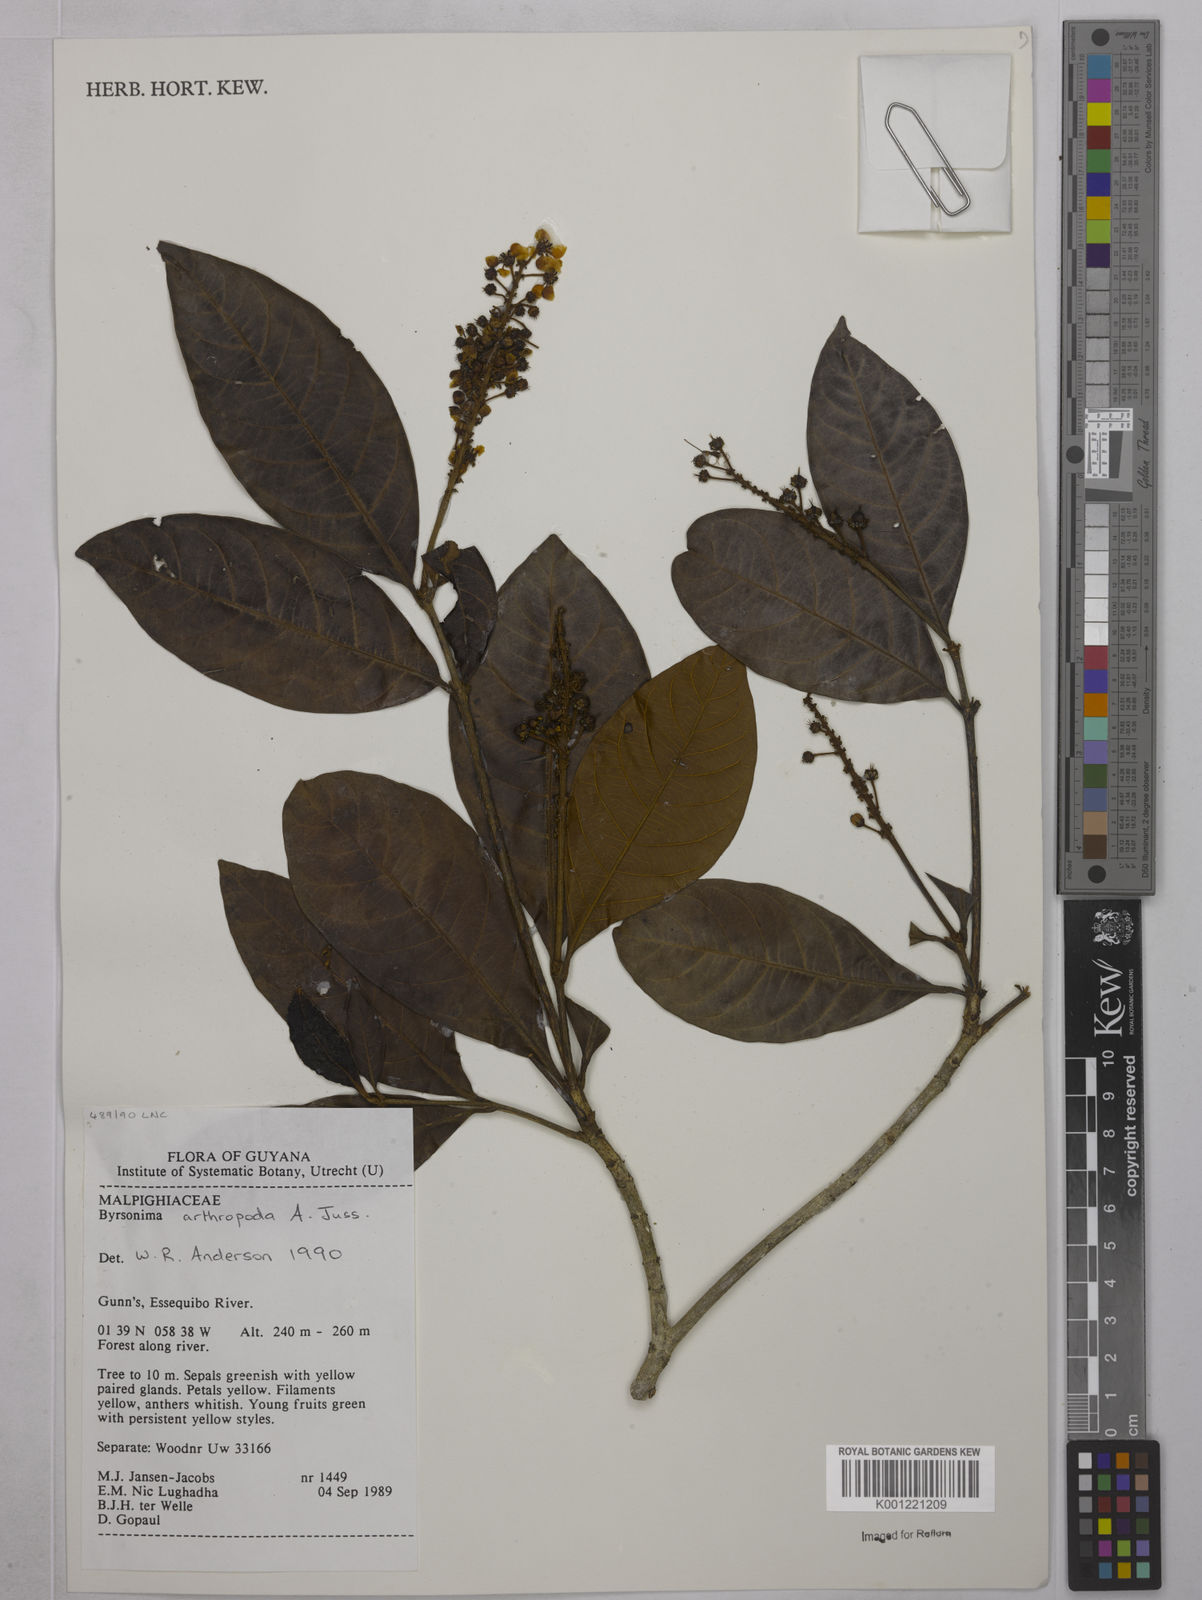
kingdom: Plantae
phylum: Tracheophyta
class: Magnoliopsida
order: Malpighiales
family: Malpighiaceae
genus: Byrsonima
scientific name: Byrsonima arthropoda
